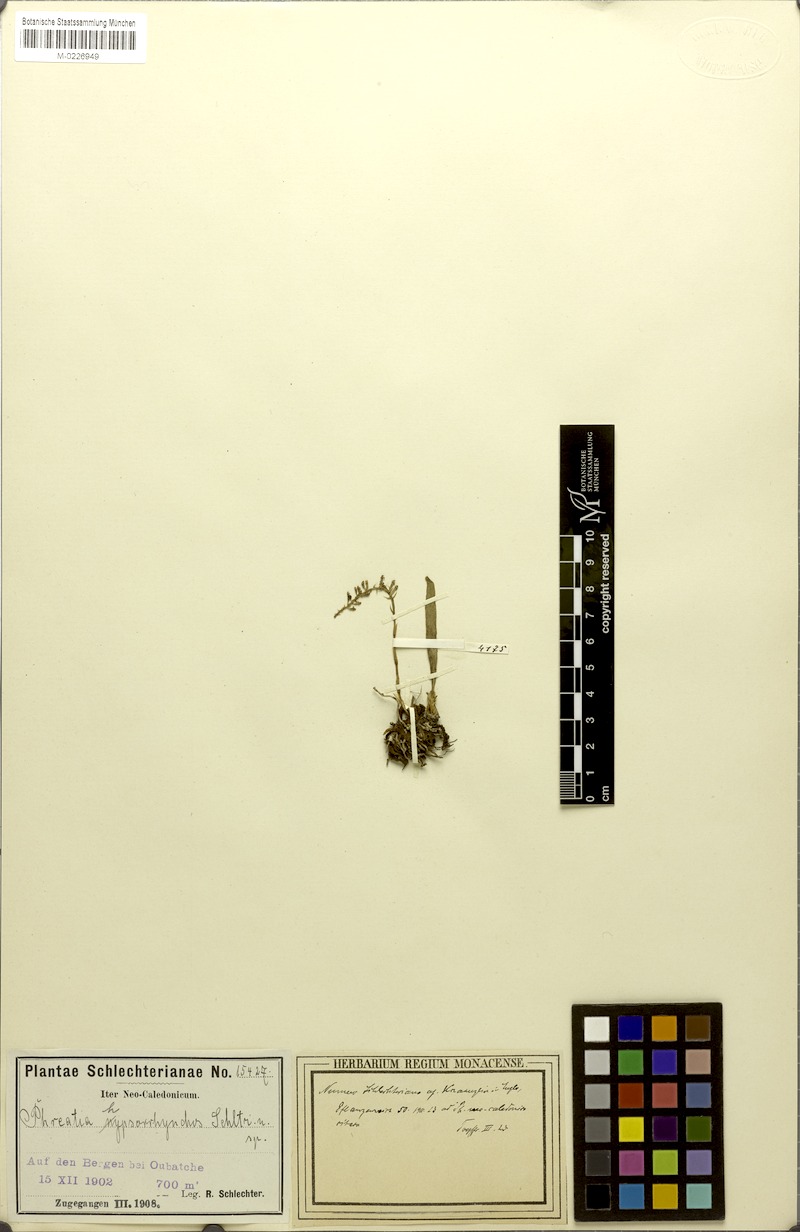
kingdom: Plantae
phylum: Tracheophyta
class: Liliopsida
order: Asparagales
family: Orchidaceae
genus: Phreatia
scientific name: Phreatia hypsorrhynchos
